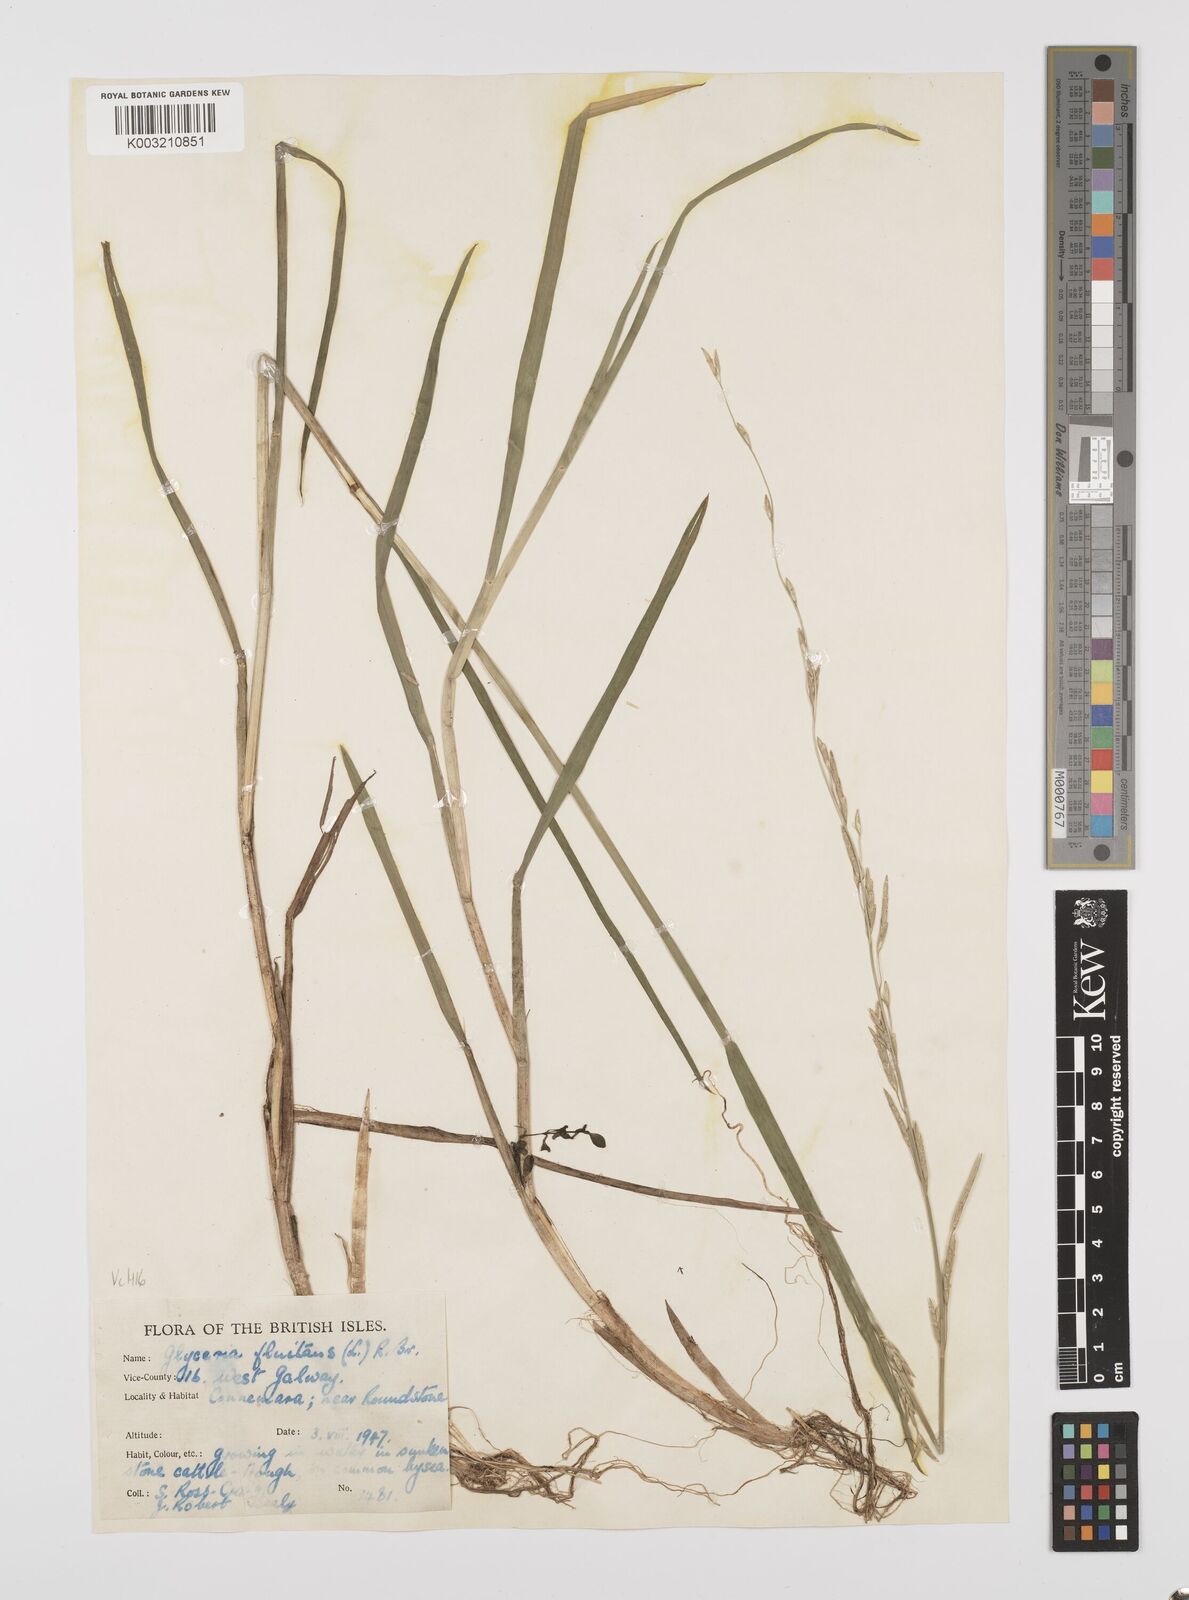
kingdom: Plantae
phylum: Tracheophyta
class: Liliopsida
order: Poales
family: Poaceae
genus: Glyceria
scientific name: Glyceria fluitans
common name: Floating sweet-grass
